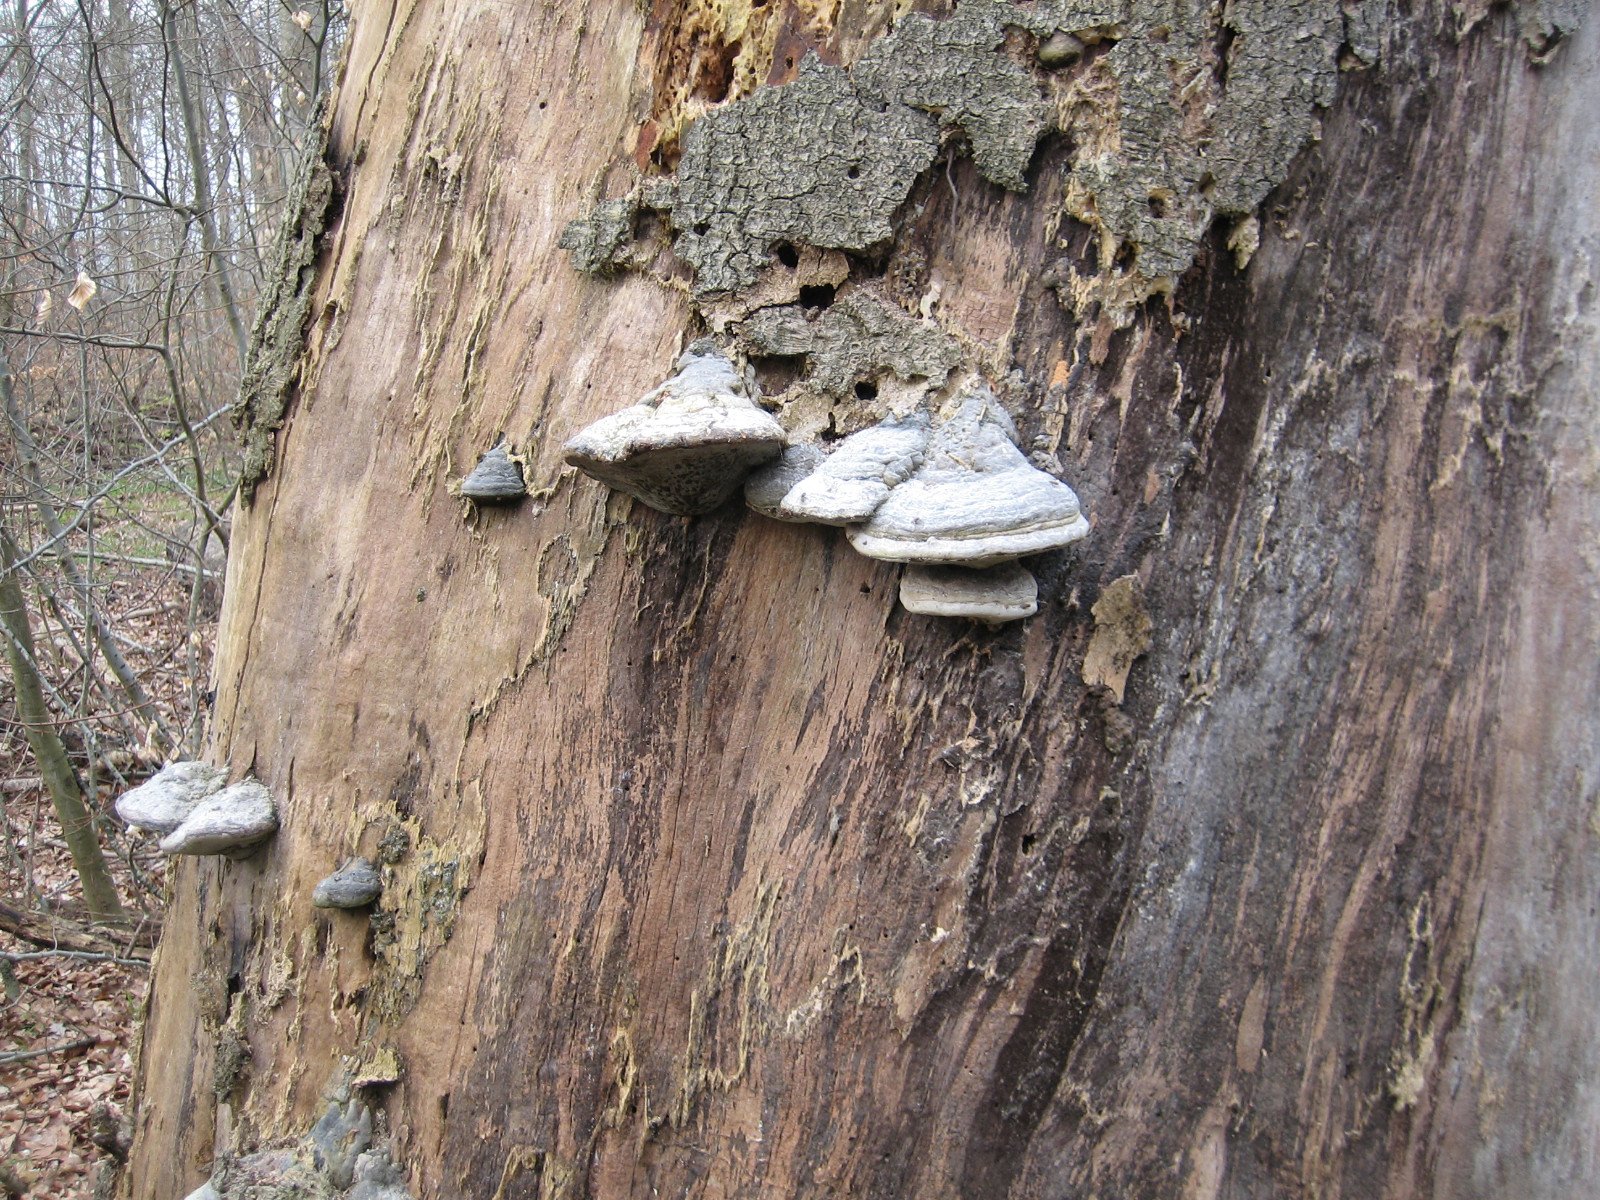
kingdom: Fungi
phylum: Basidiomycota
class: Agaricomycetes
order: Polyporales
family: Polyporaceae
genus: Fomes
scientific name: Fomes fomentarius
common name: tøndersvamp
